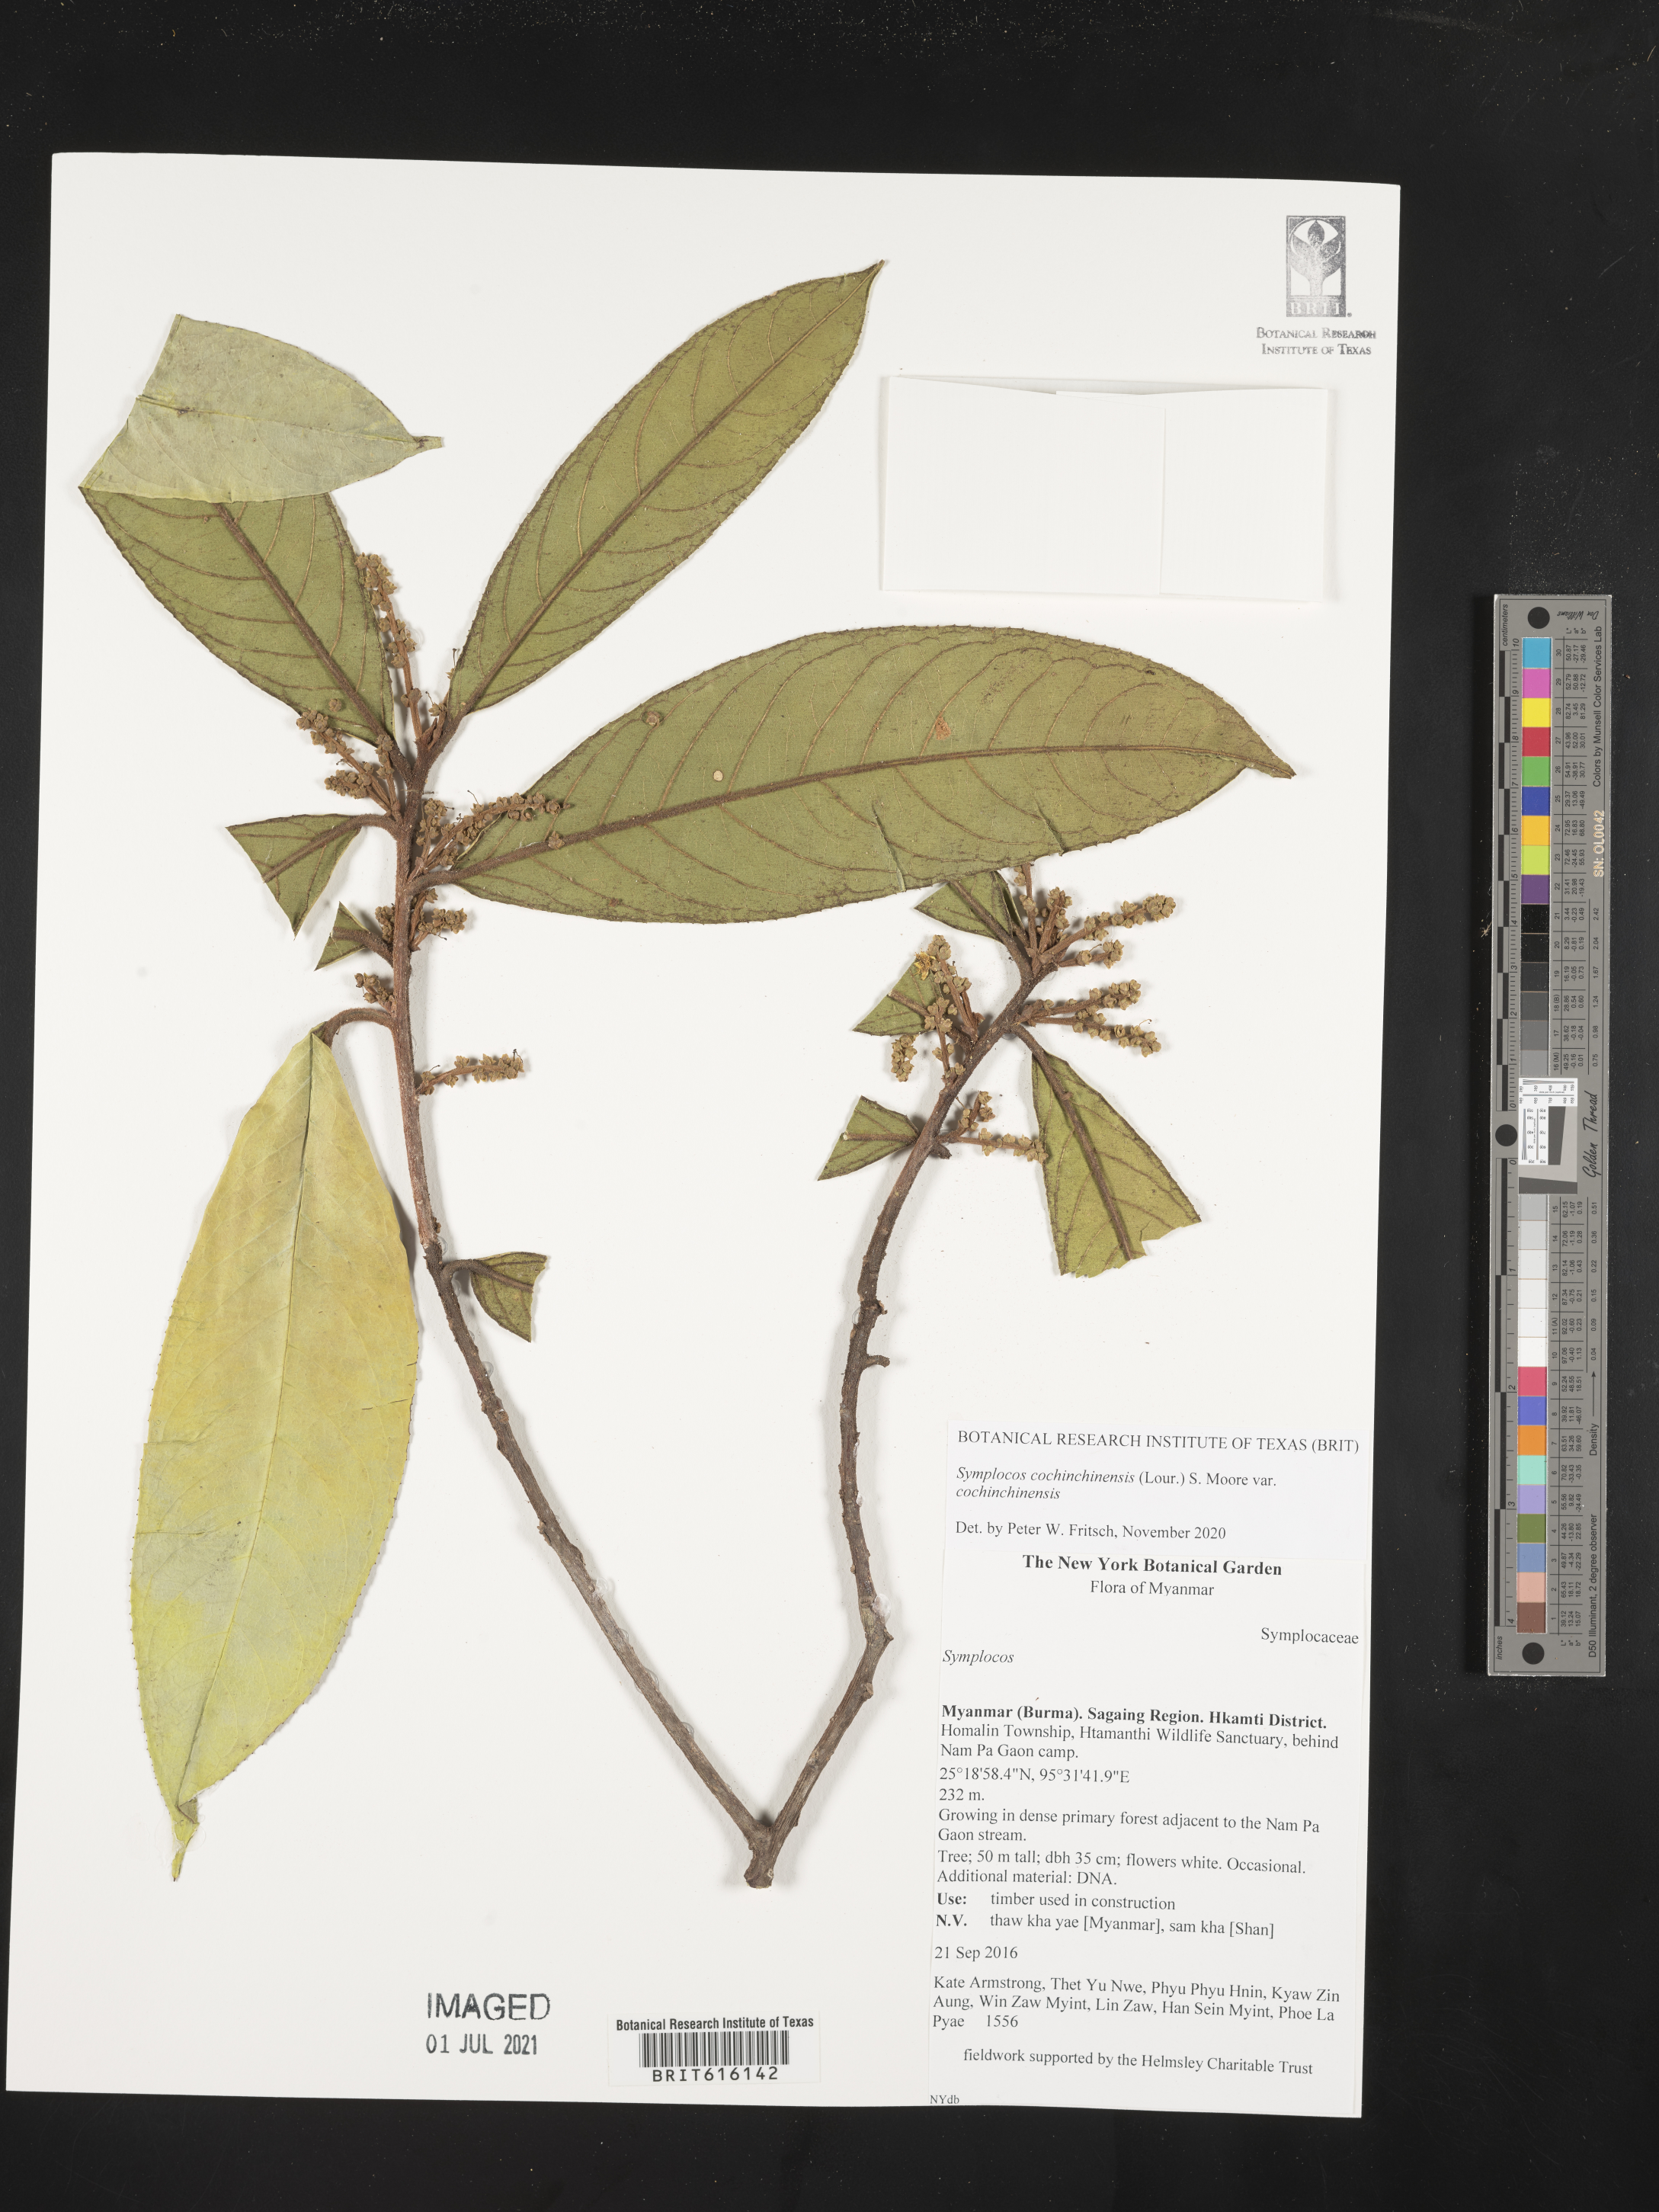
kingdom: Plantae
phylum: Tracheophyta
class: Magnoliopsida
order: Ericales
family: Symplocaceae
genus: Symplocos
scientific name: Symplocos cochinchinensis
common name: Buff hazelwood
